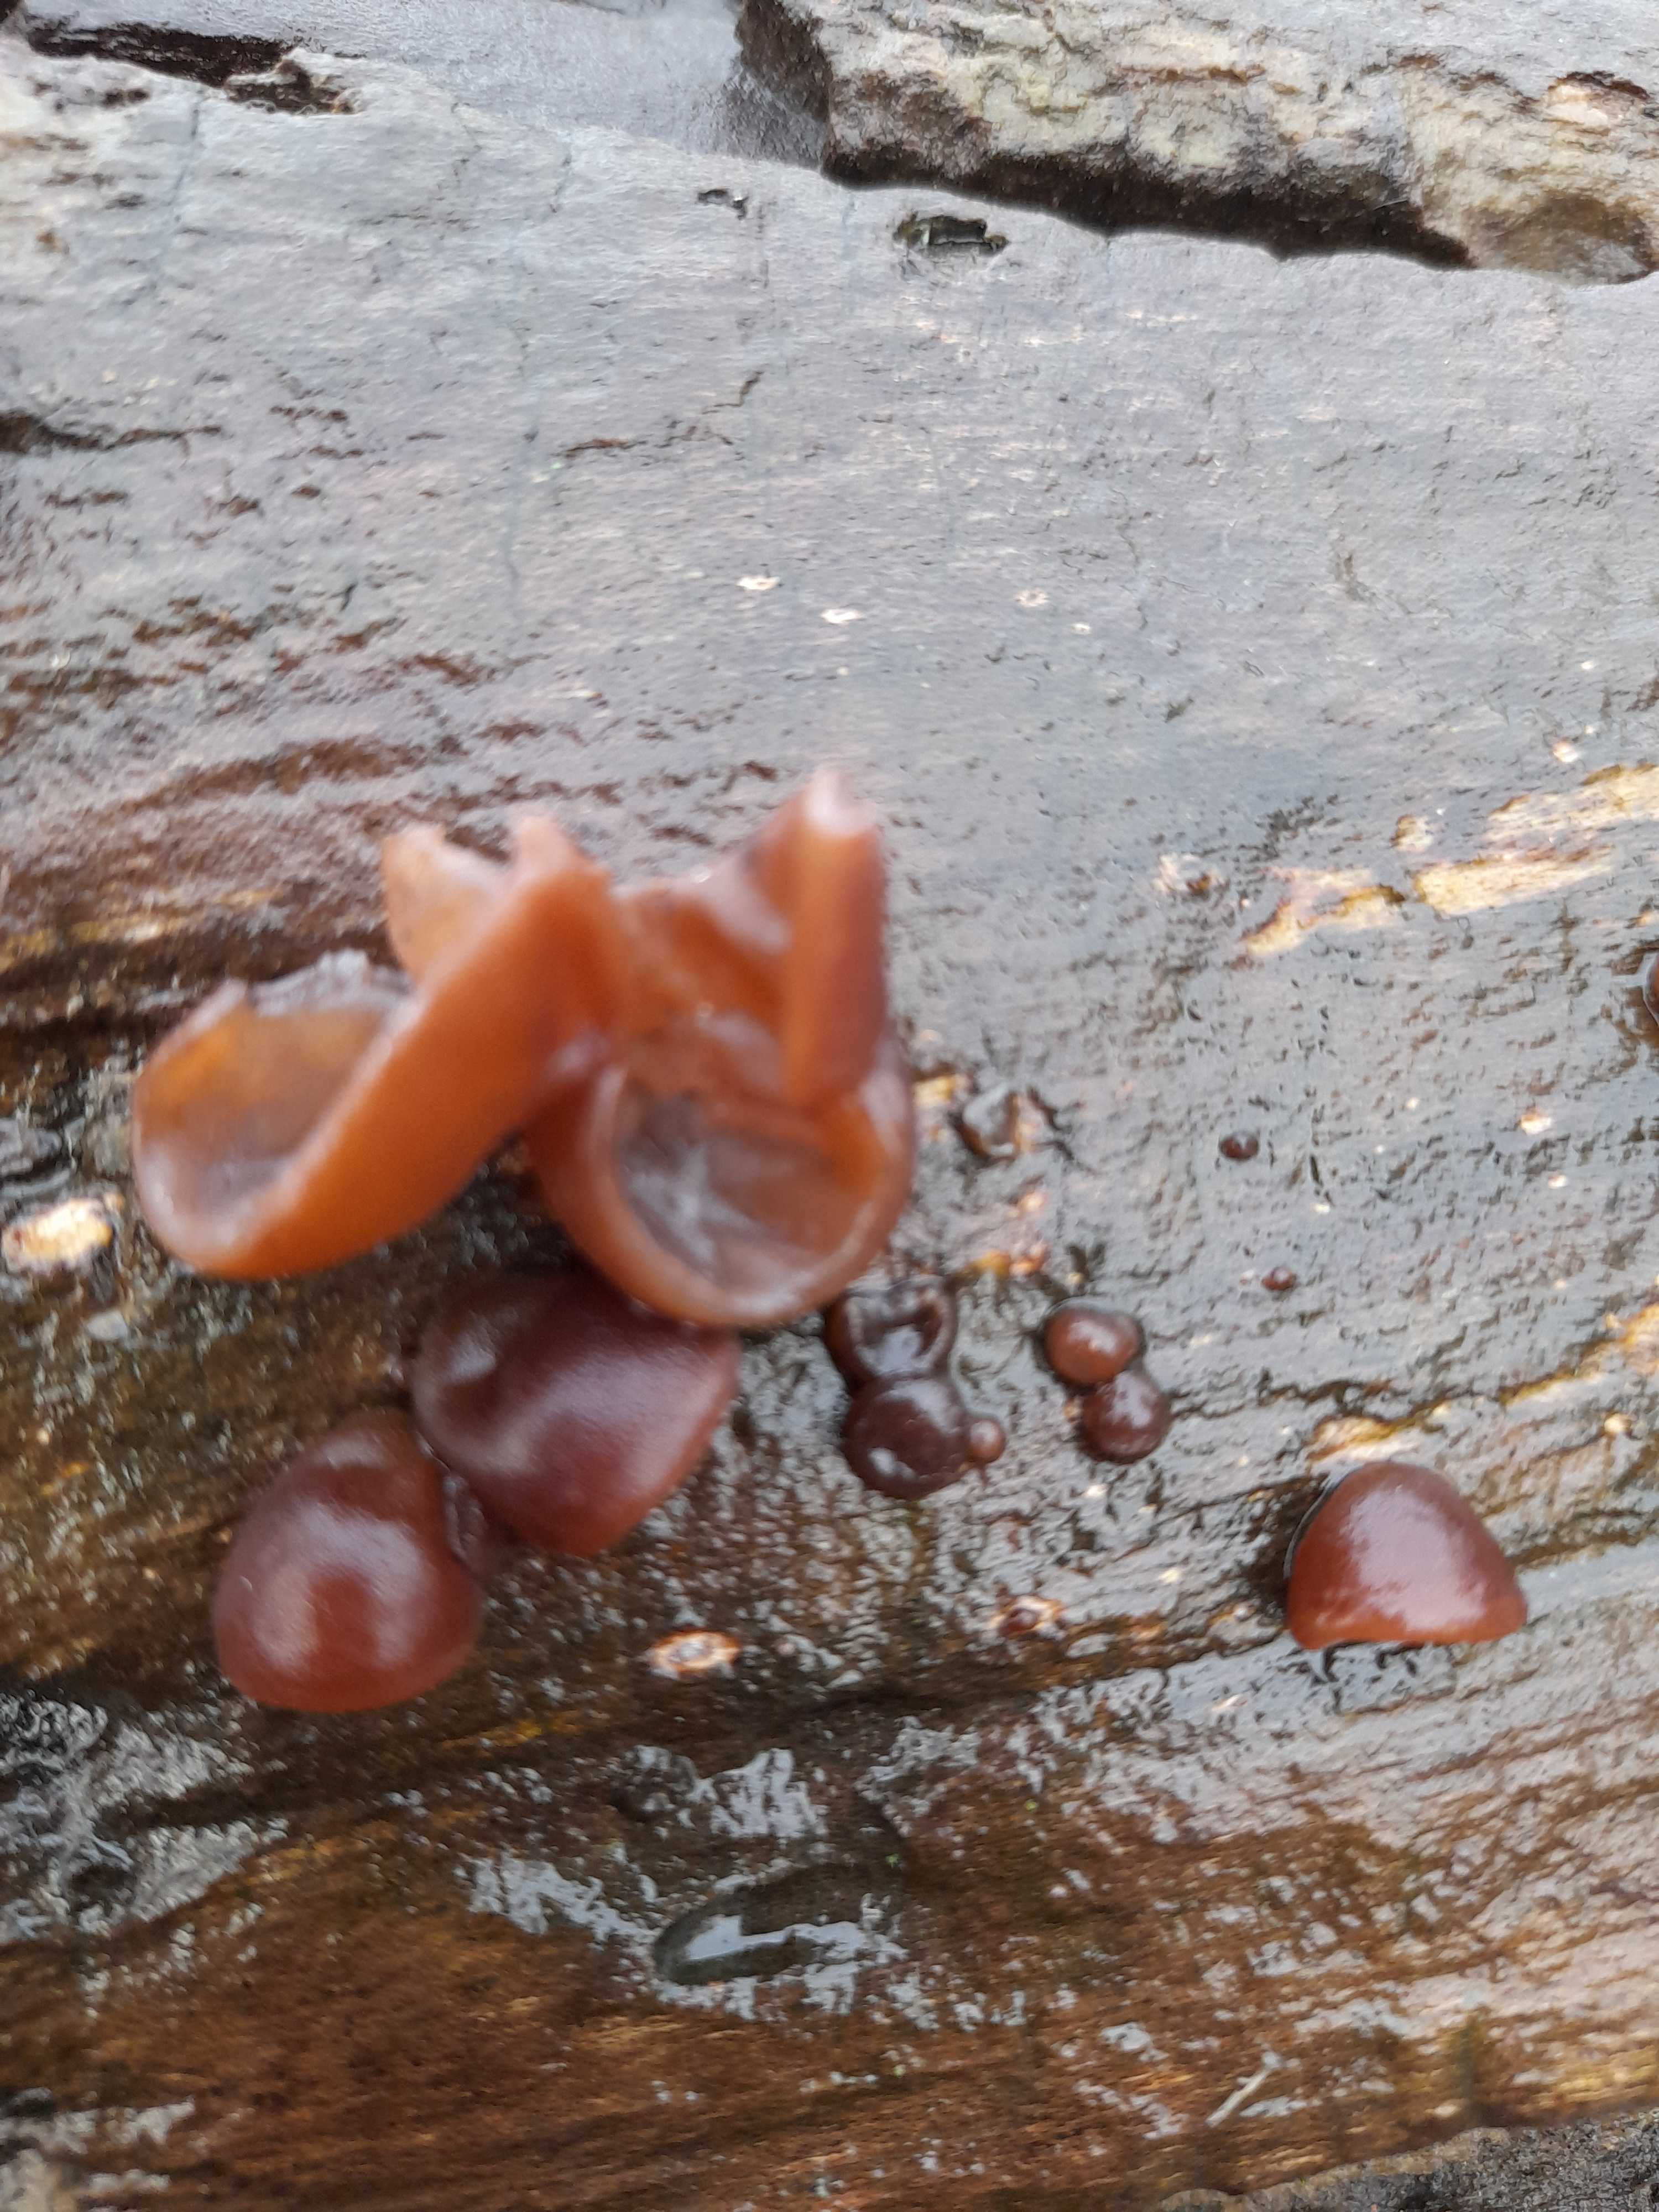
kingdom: Fungi
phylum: Basidiomycota
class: Agaricomycetes
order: Auriculariales
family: Auriculariaceae
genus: Auricularia
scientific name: Auricularia auricula-judae
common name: almindelig judasøre
